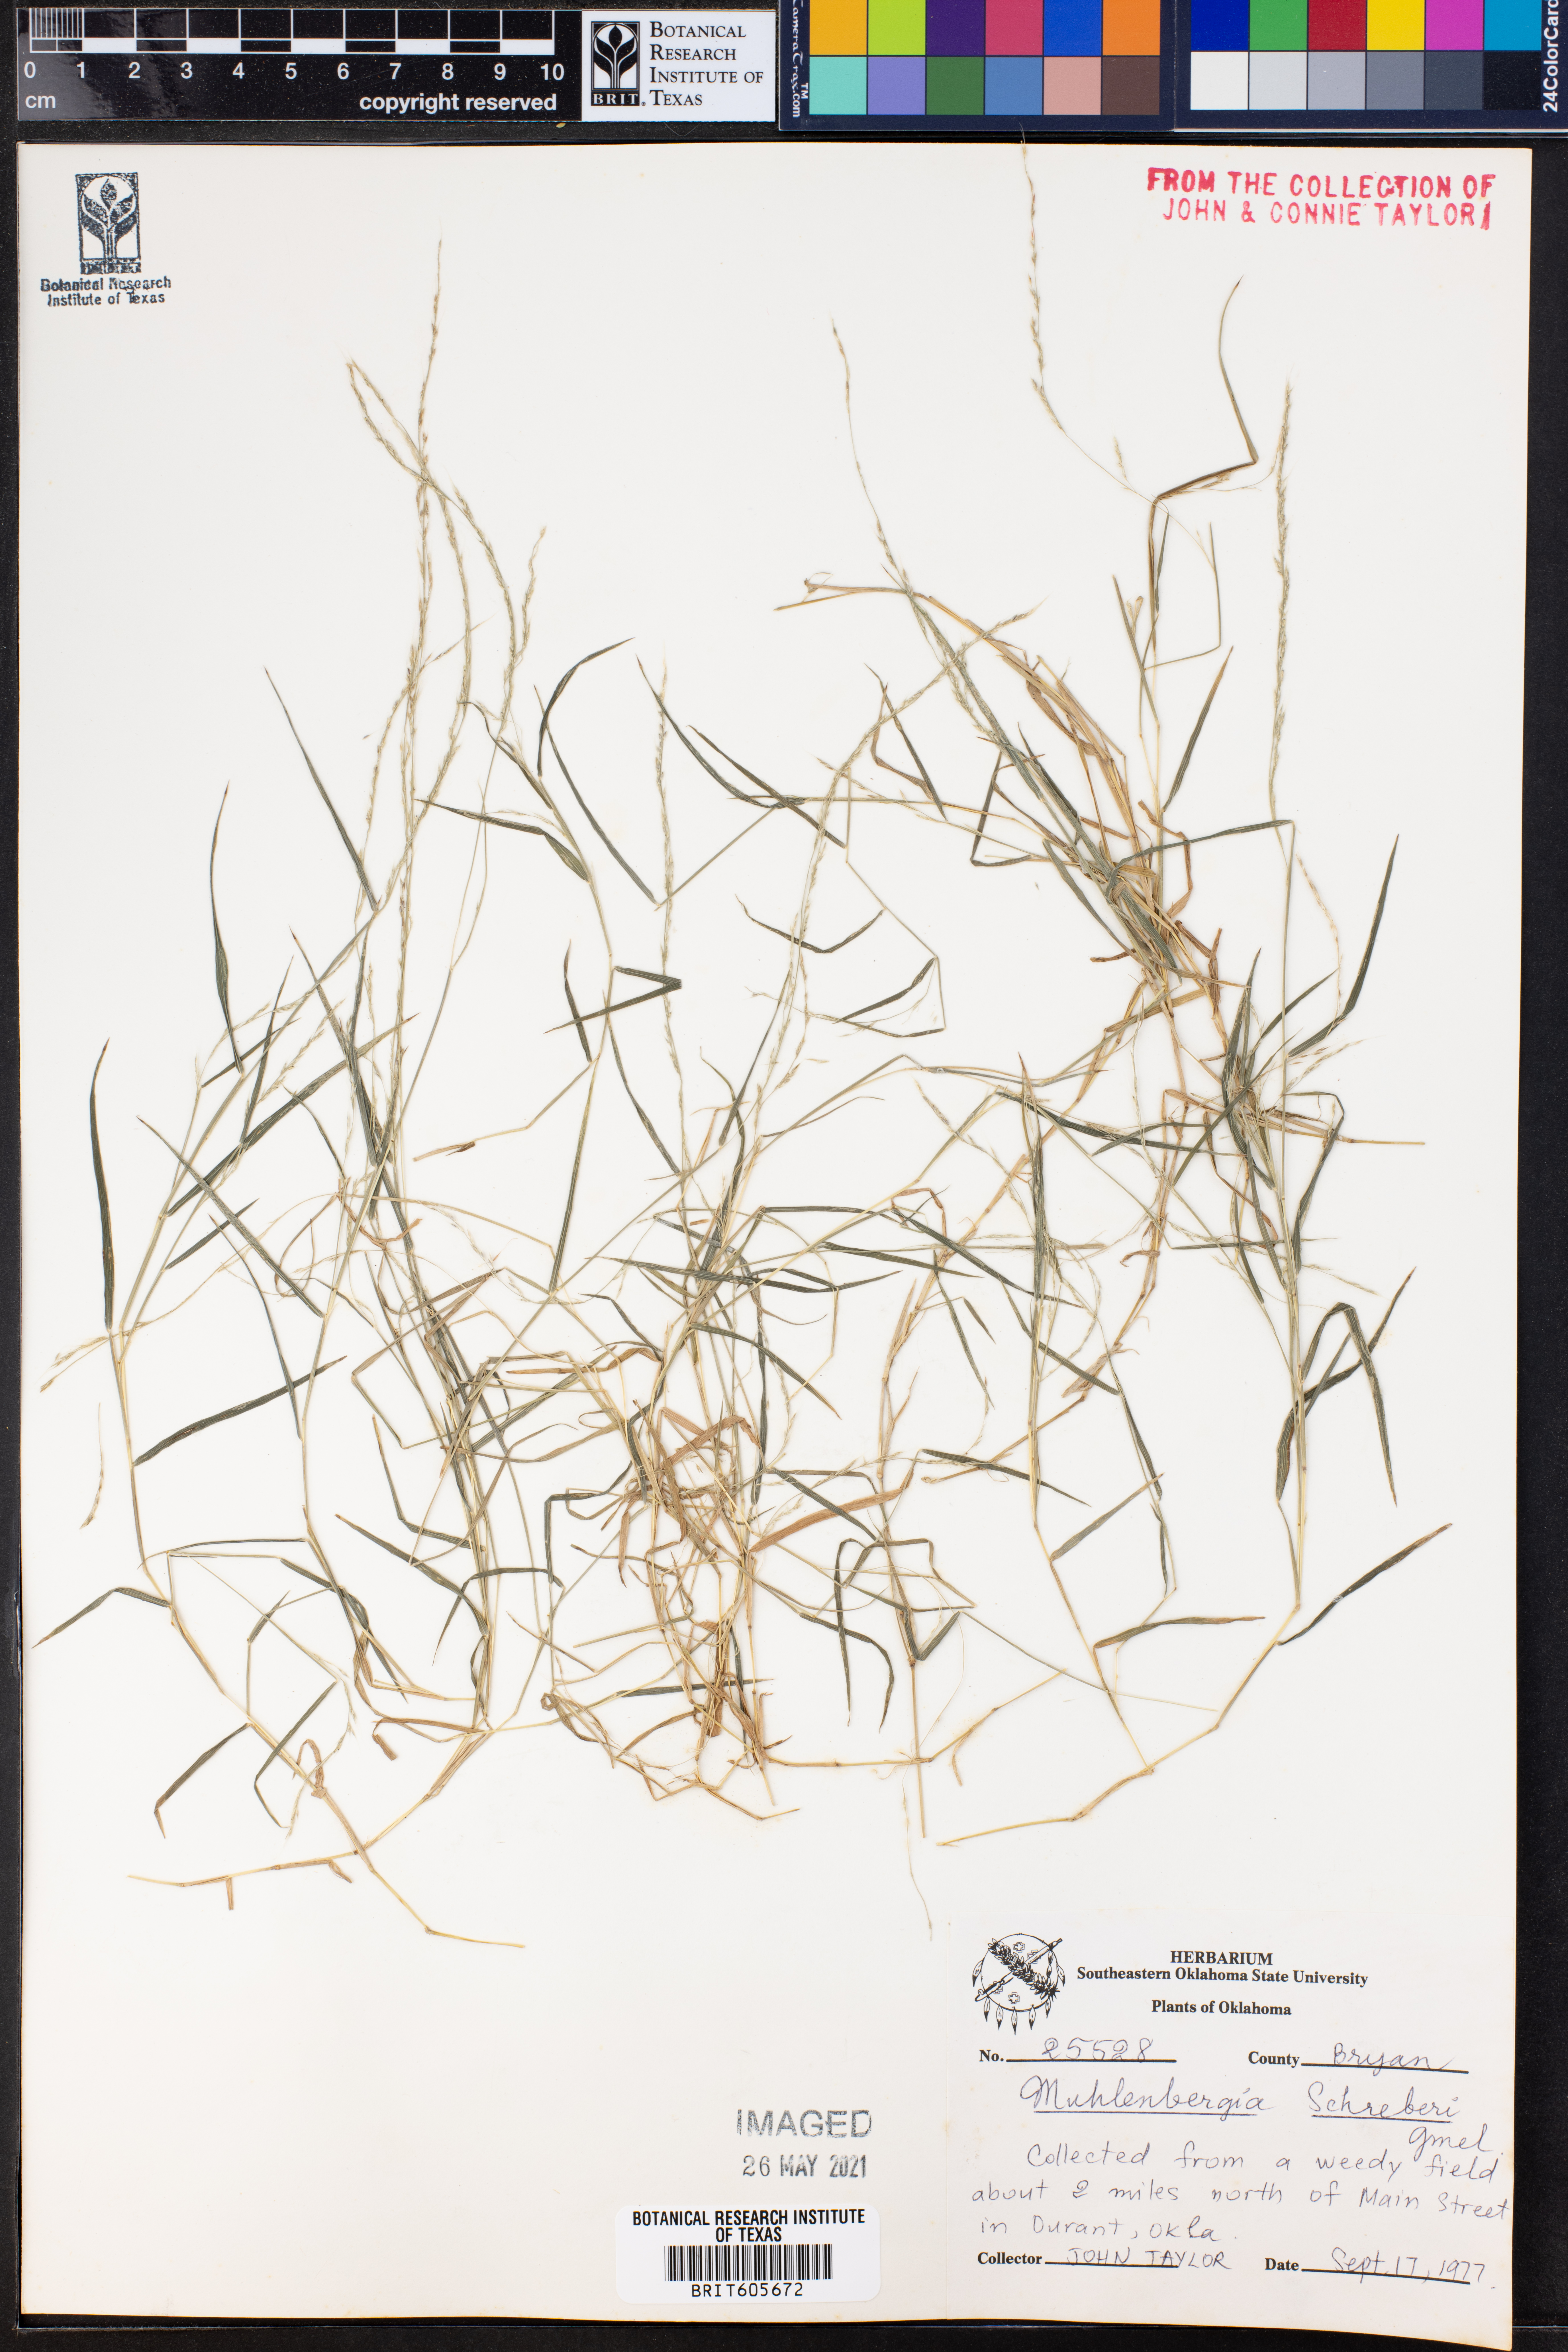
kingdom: Plantae
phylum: Tracheophyta
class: Liliopsida
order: Poales
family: Poaceae
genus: Muhlenbergia
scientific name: Muhlenbergia schreberi
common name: Nimblewill
